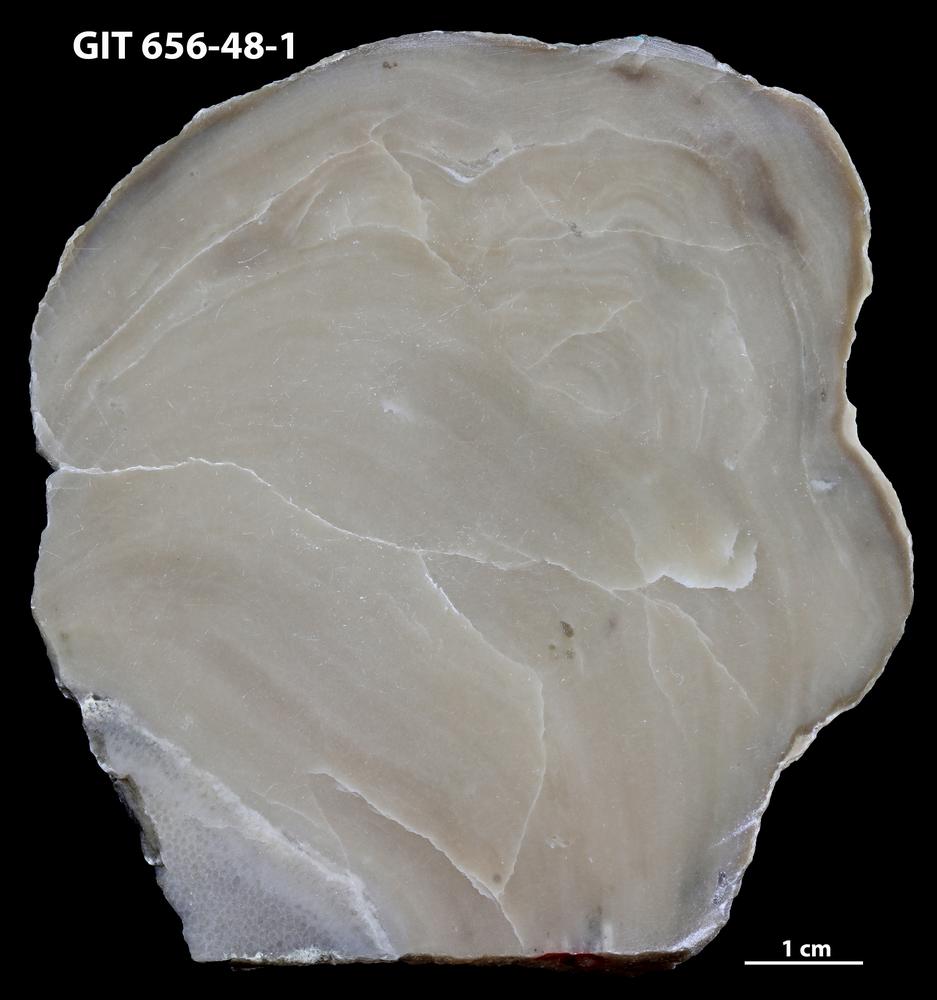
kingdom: Animalia
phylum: Porifera
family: Stromatoporidae
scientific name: Stromatoporidae
